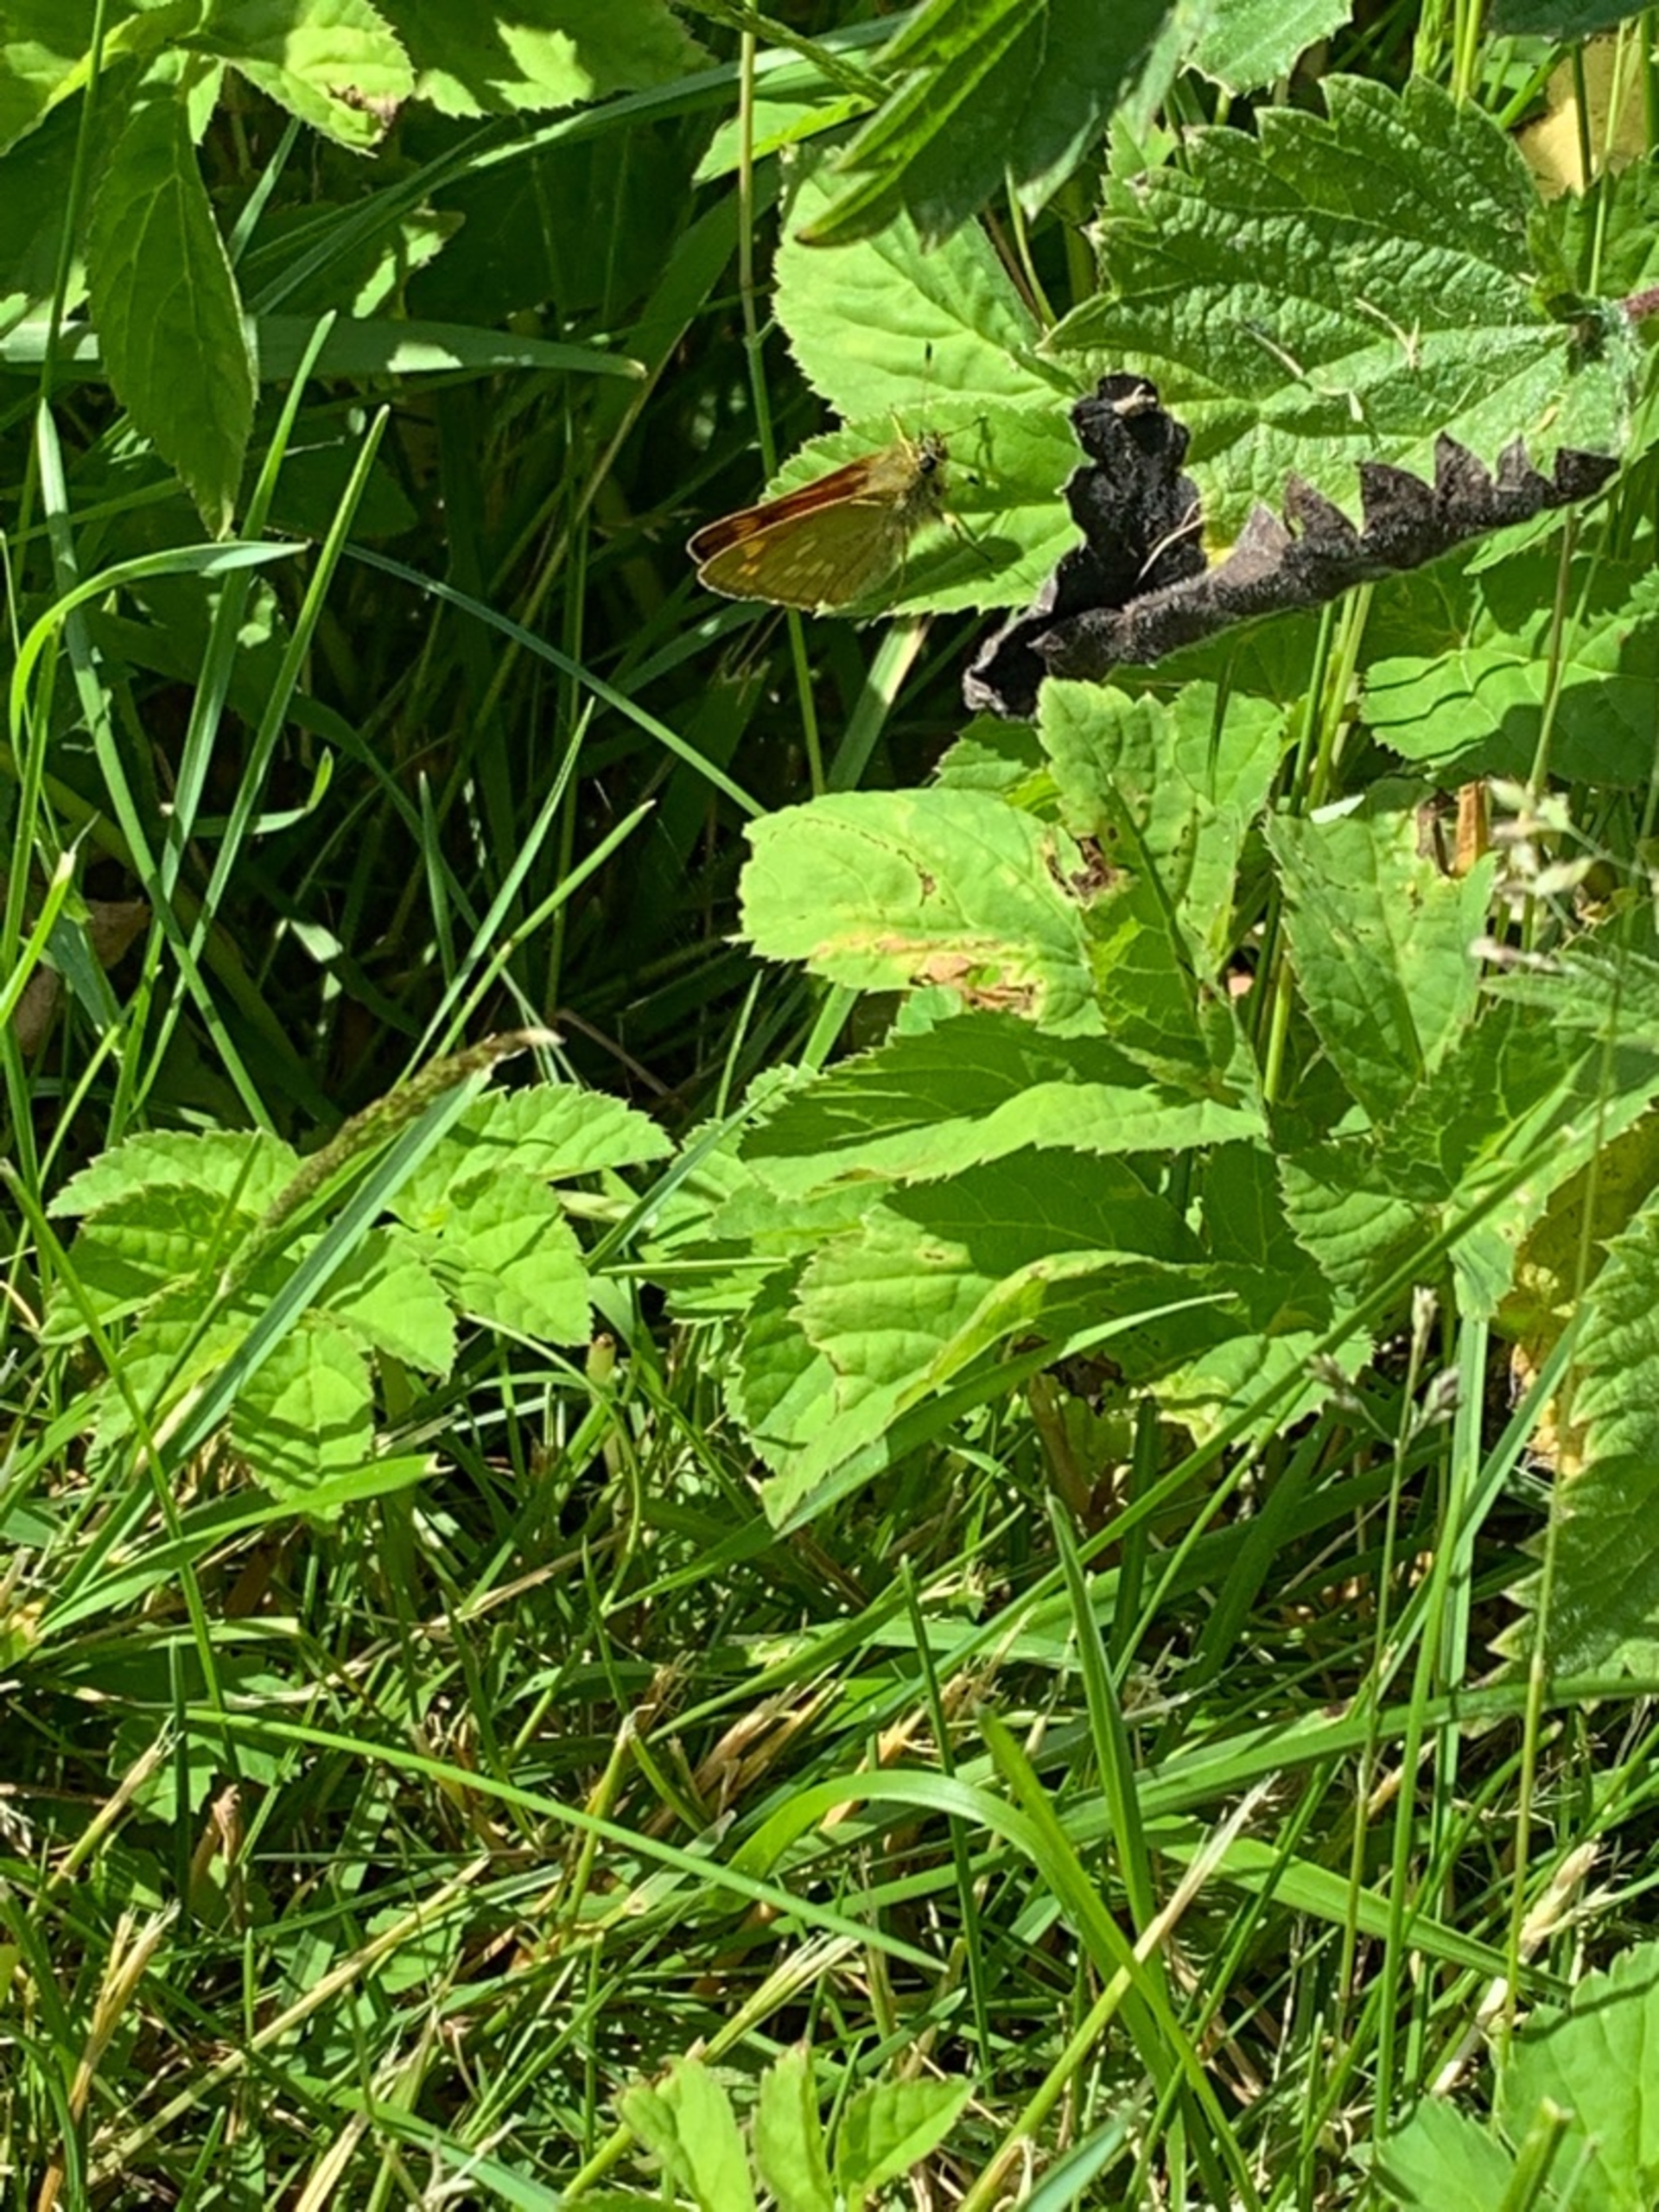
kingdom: Animalia
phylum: Arthropoda
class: Insecta
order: Lepidoptera
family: Hesperiidae
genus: Ochlodes
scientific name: Ochlodes venata
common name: Stor bredpande
